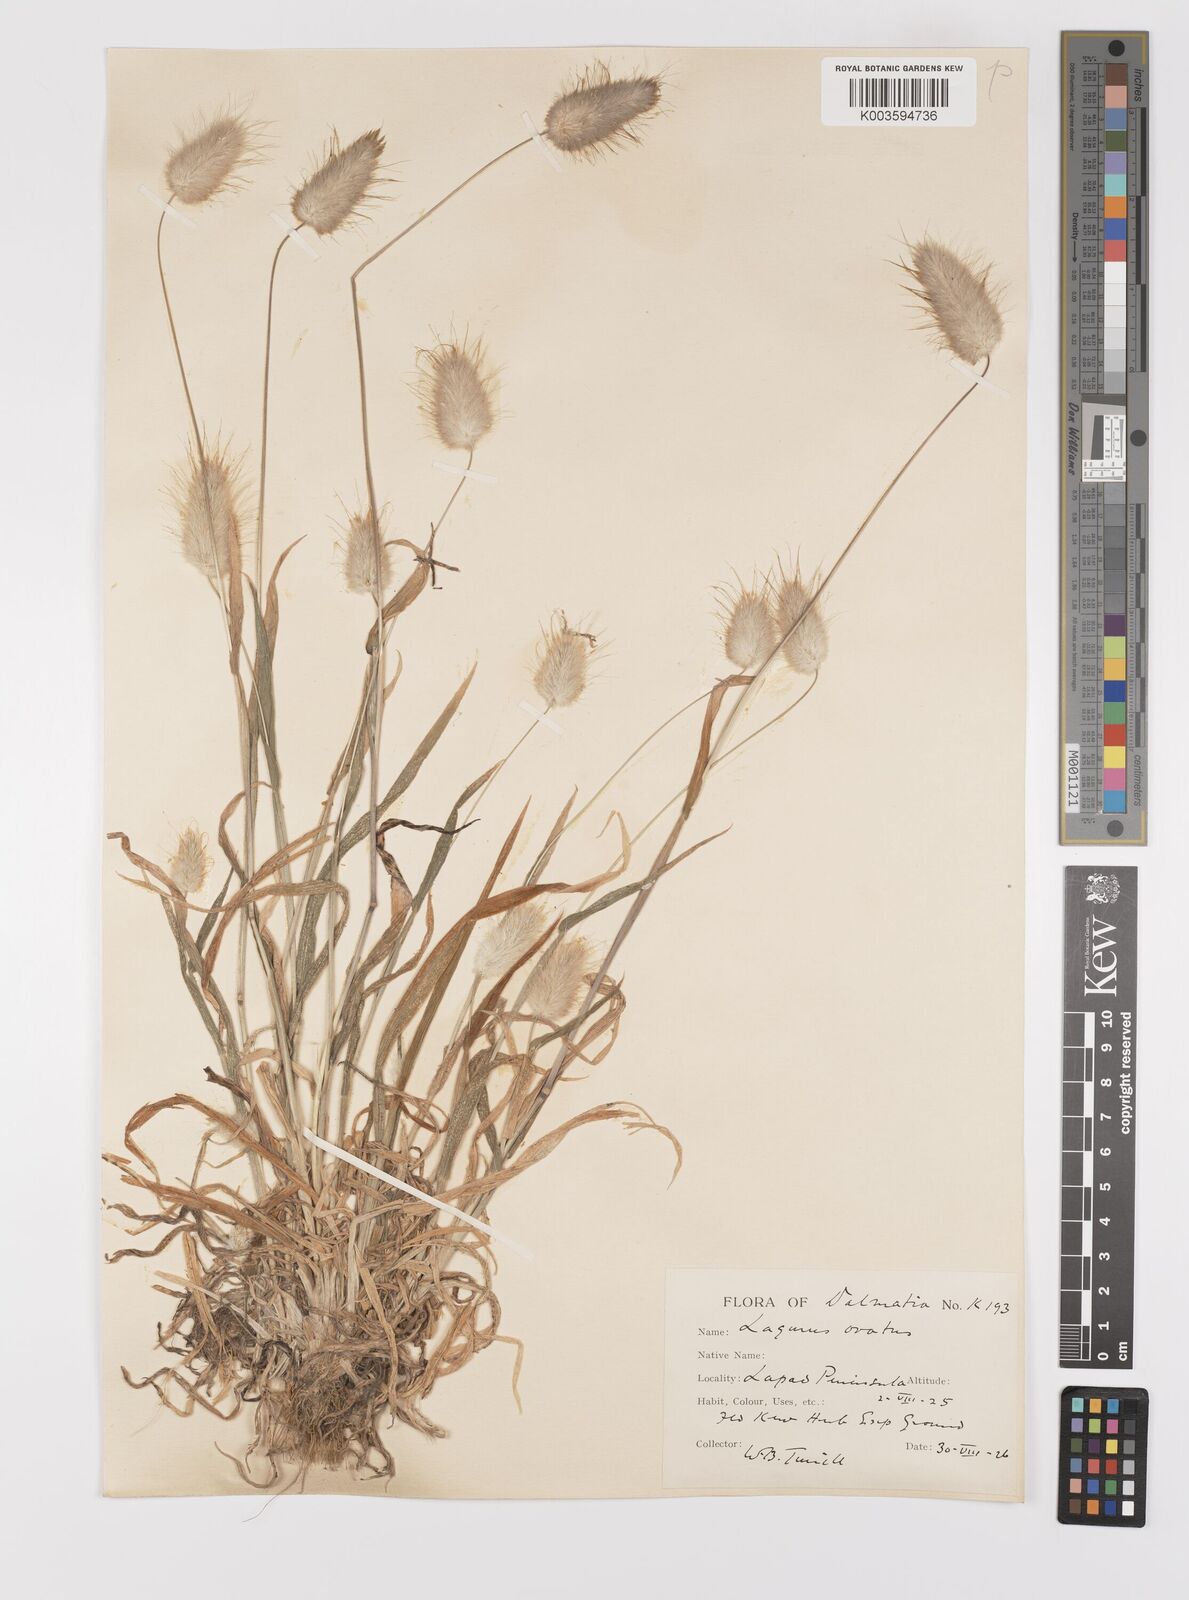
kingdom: Plantae
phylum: Tracheophyta
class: Liliopsida
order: Poales
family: Poaceae
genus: Lagurus
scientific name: Lagurus ovatus
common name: Hare's-tail
